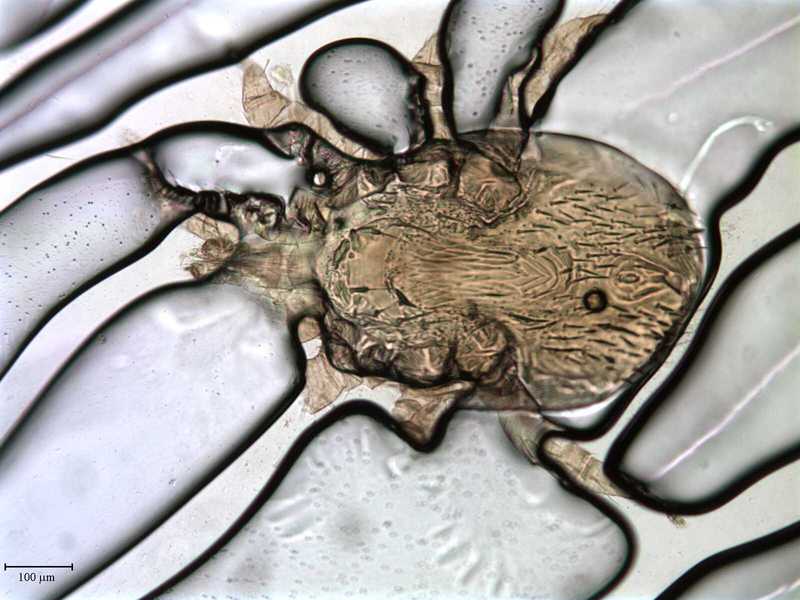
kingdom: Animalia
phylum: Arthropoda
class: Arachnida
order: Mesostigmata
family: Macronyssidae
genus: Macronyssus
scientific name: Macronyssus diversipilis
